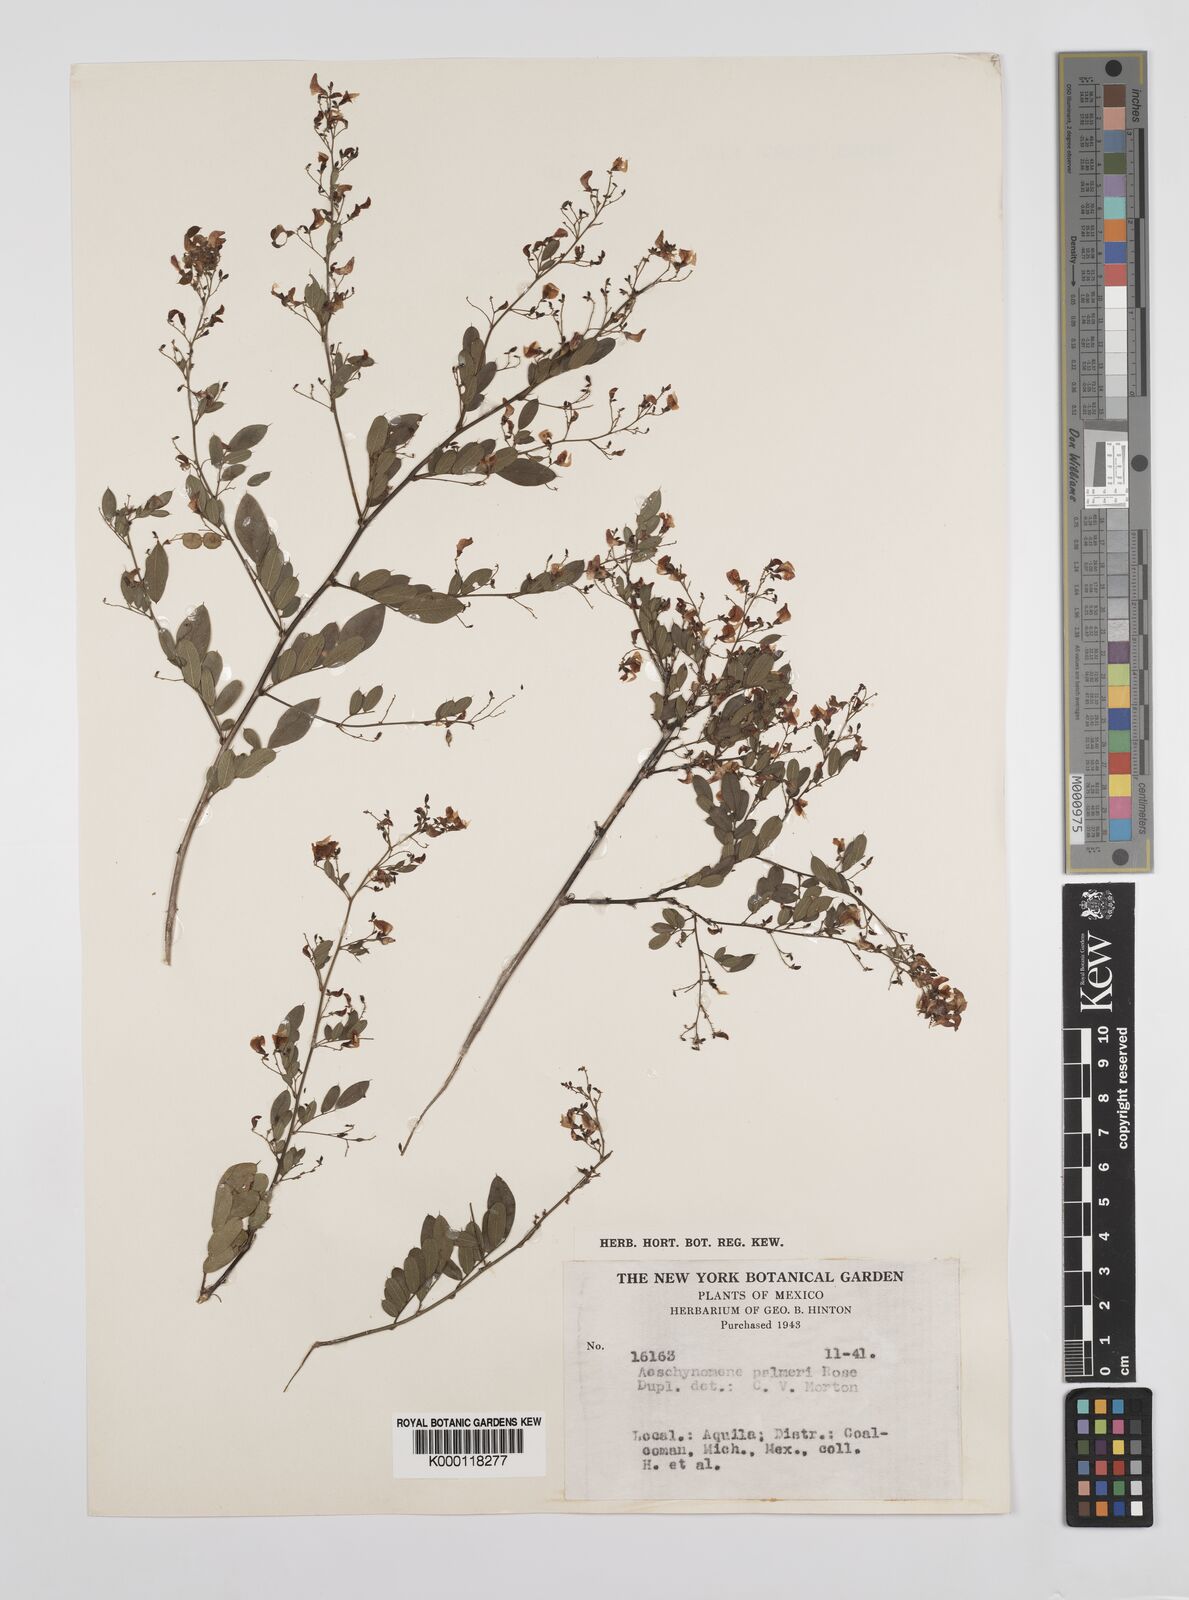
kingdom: Plantae
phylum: Tracheophyta
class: Magnoliopsida
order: Fabales
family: Fabaceae
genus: Ctenodon
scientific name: Ctenodon palmeri
